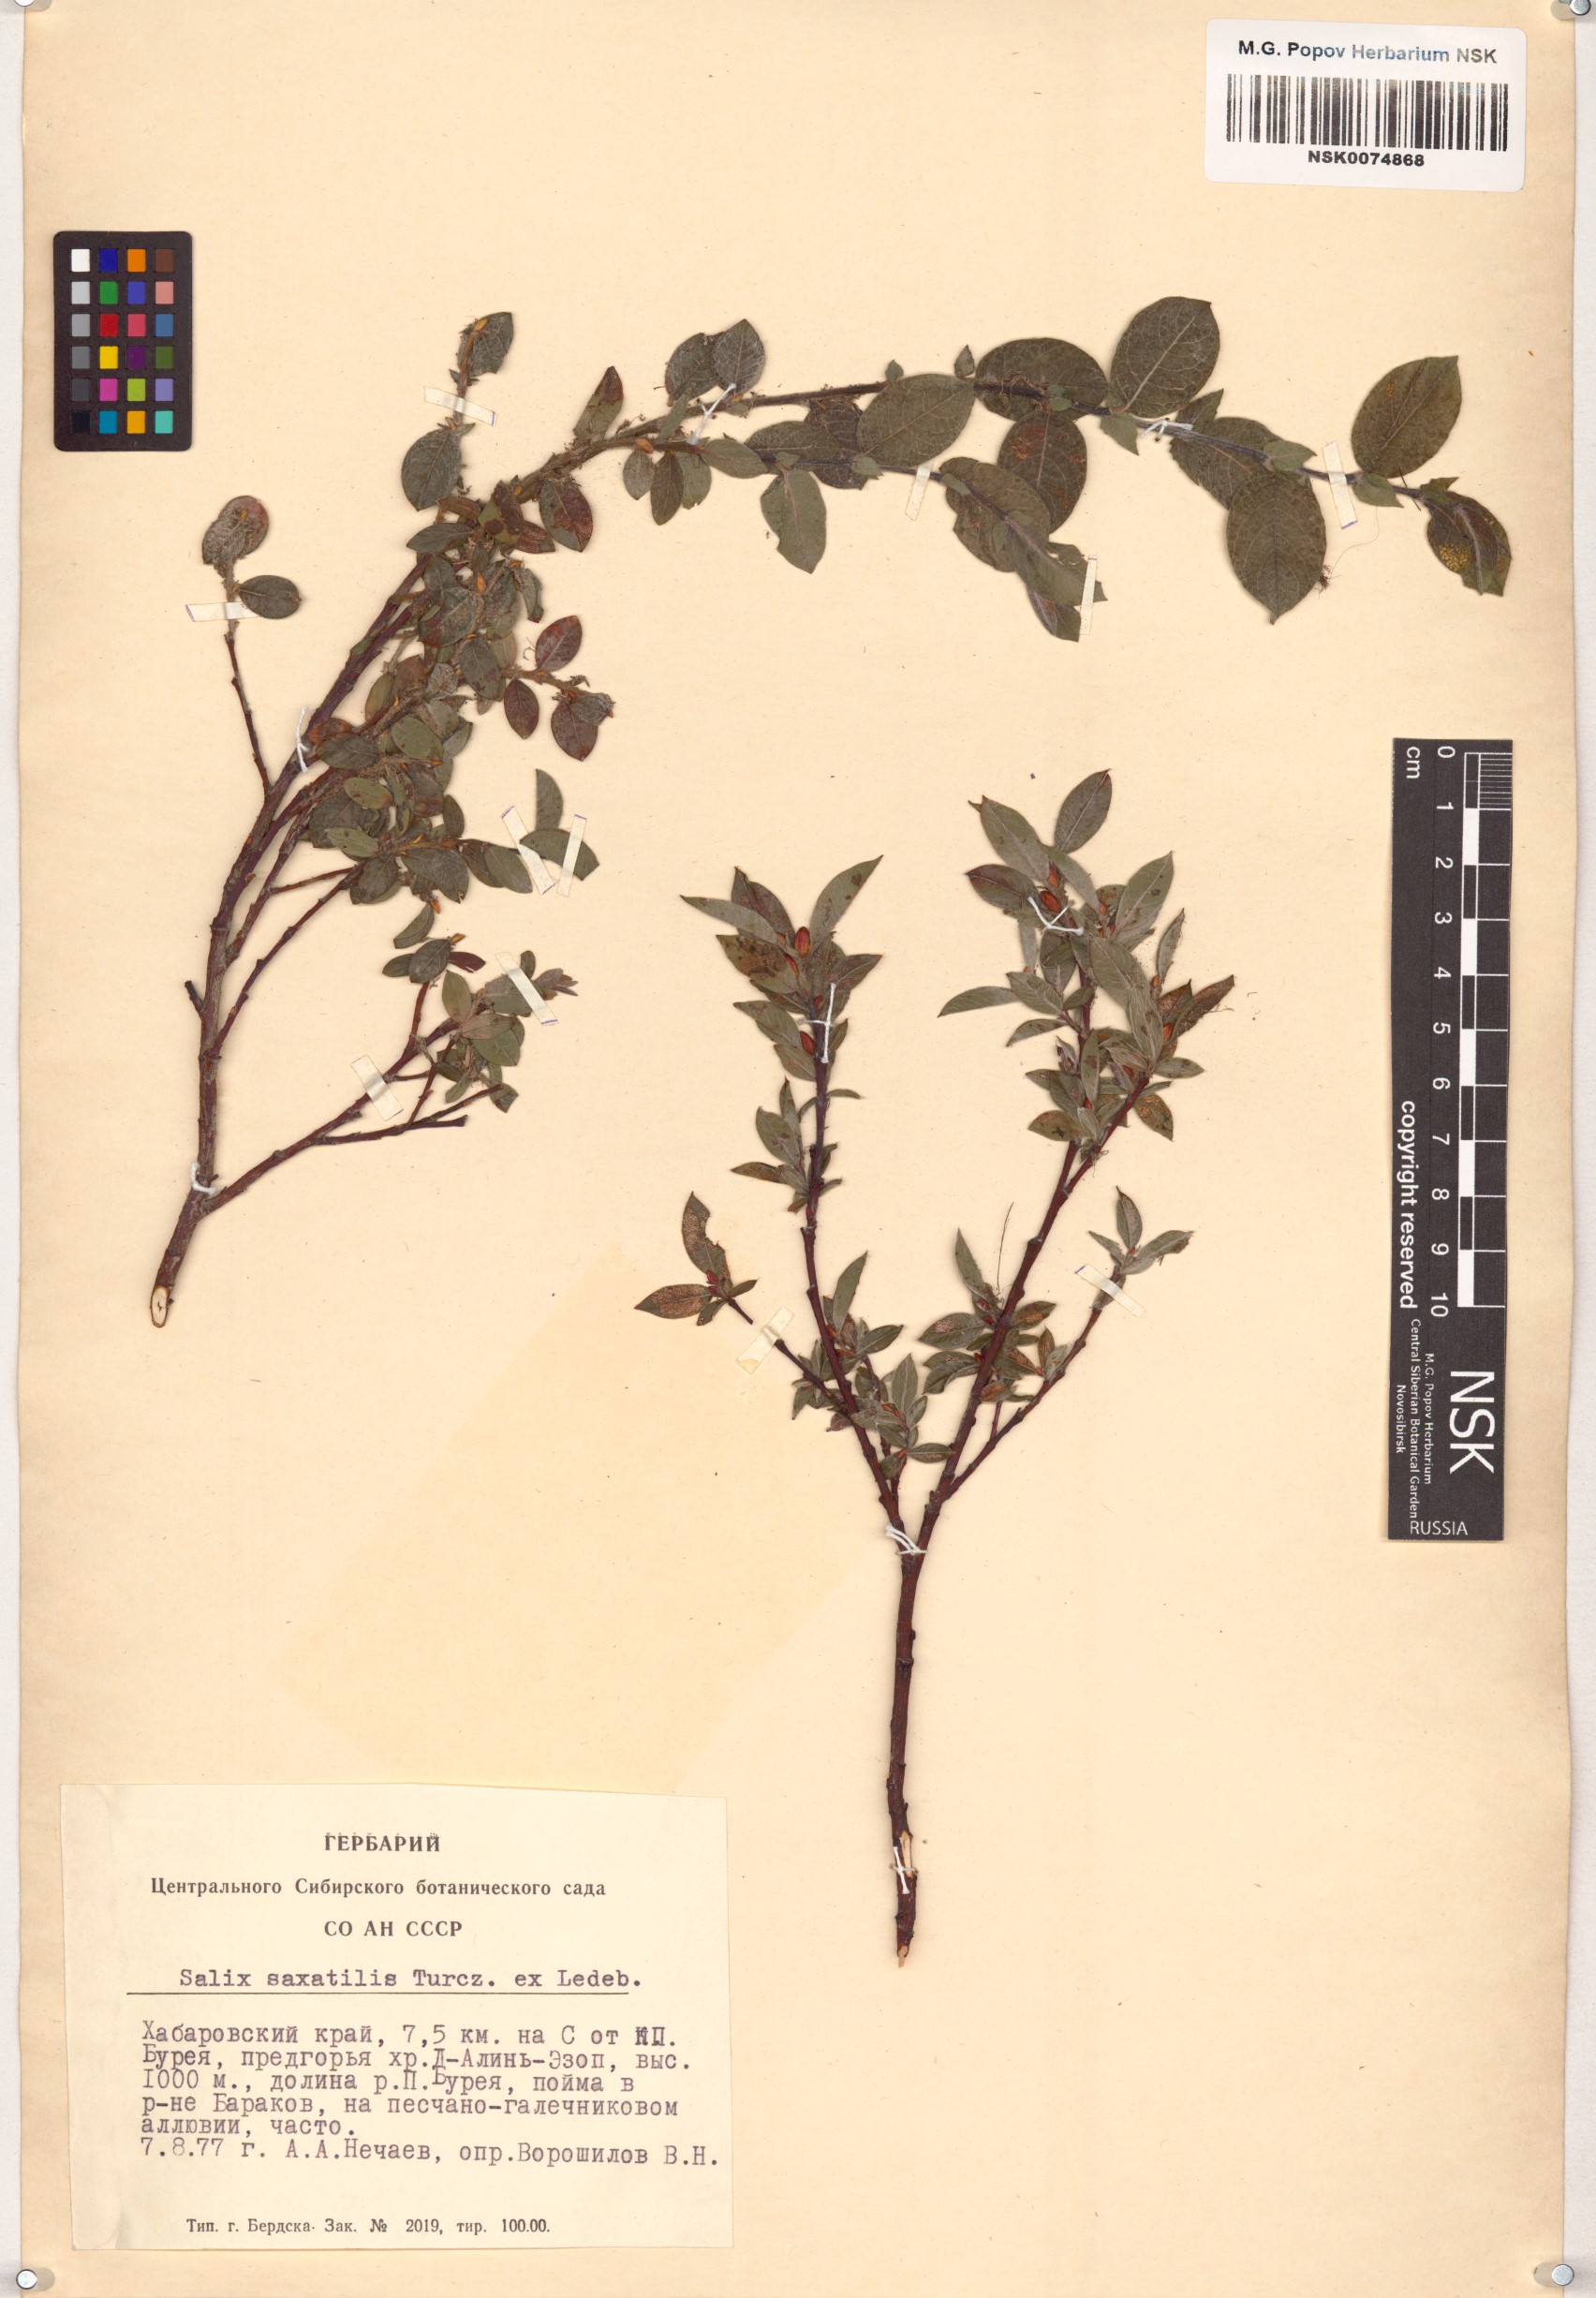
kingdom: Plantae
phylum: Tracheophyta
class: Magnoliopsida
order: Malpighiales
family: Salicaceae
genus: Salix
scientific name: Salix saxatilis
